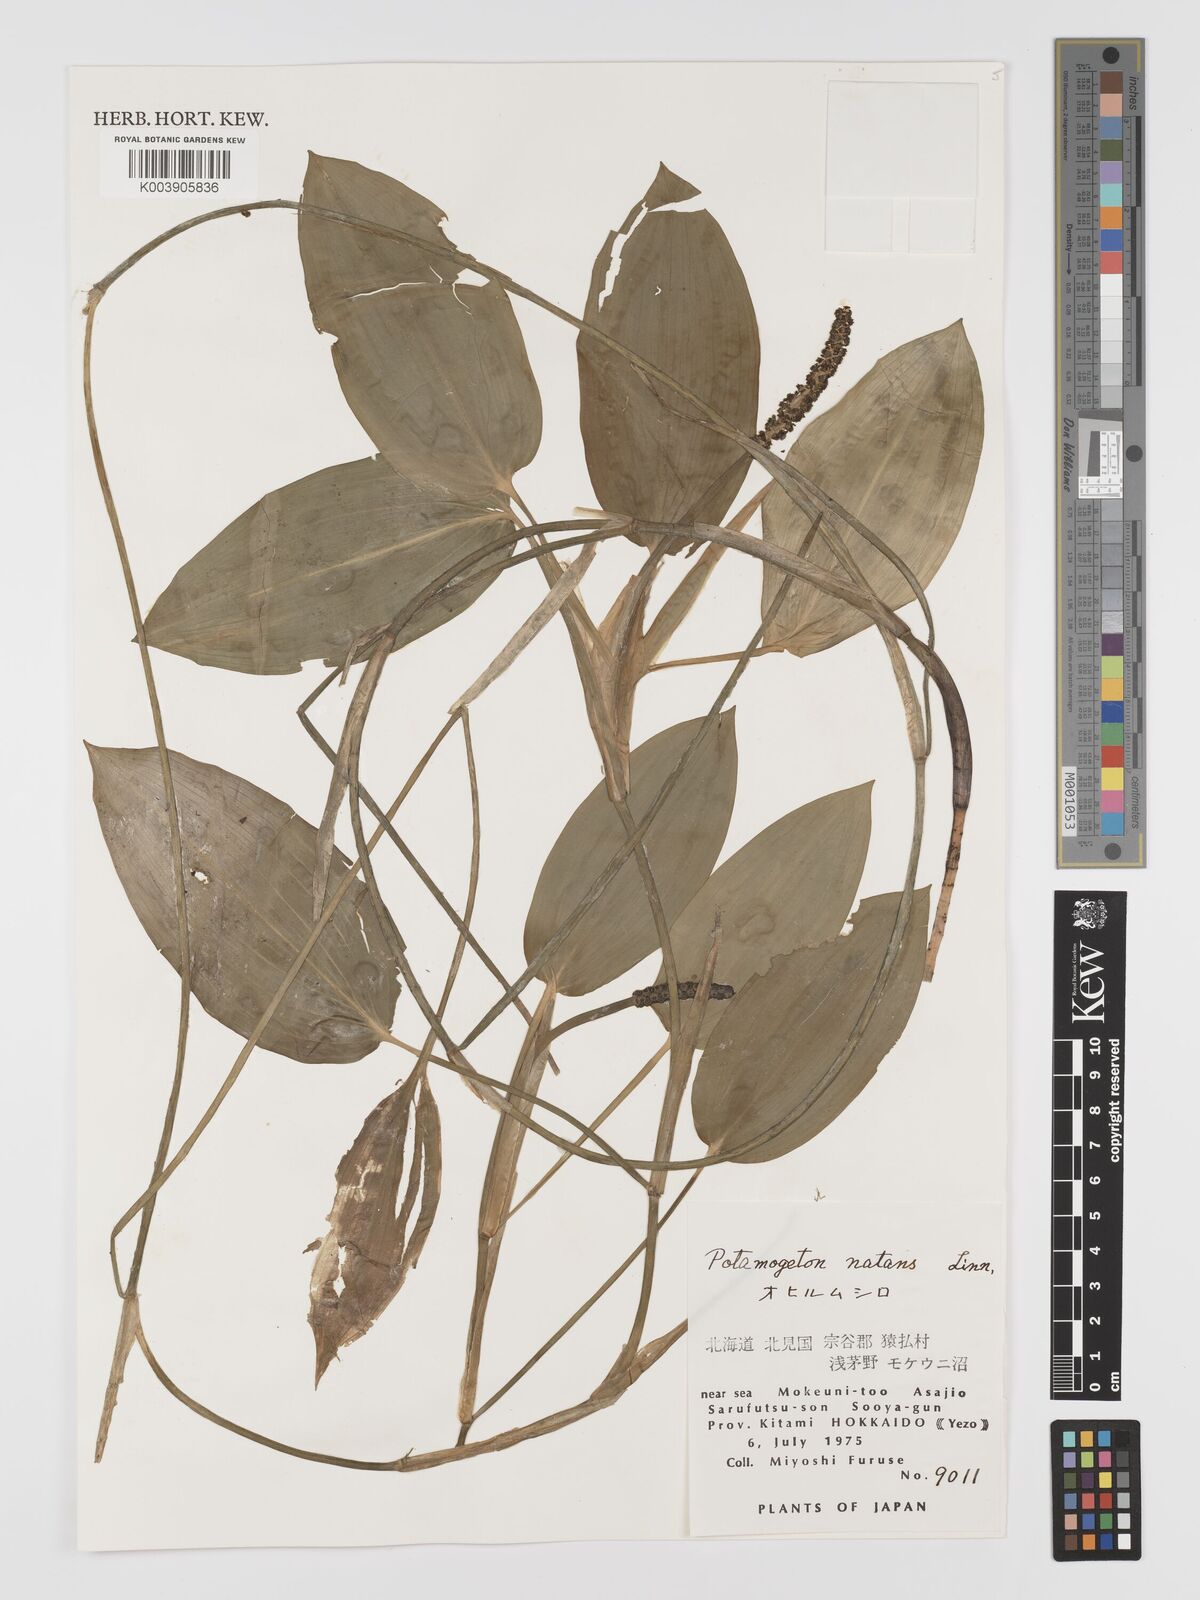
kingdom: Plantae
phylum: Tracheophyta
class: Liliopsida
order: Alismatales
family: Potamogetonaceae
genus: Potamogeton
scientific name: Potamogeton natans
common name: Broad-leaved pondweed
